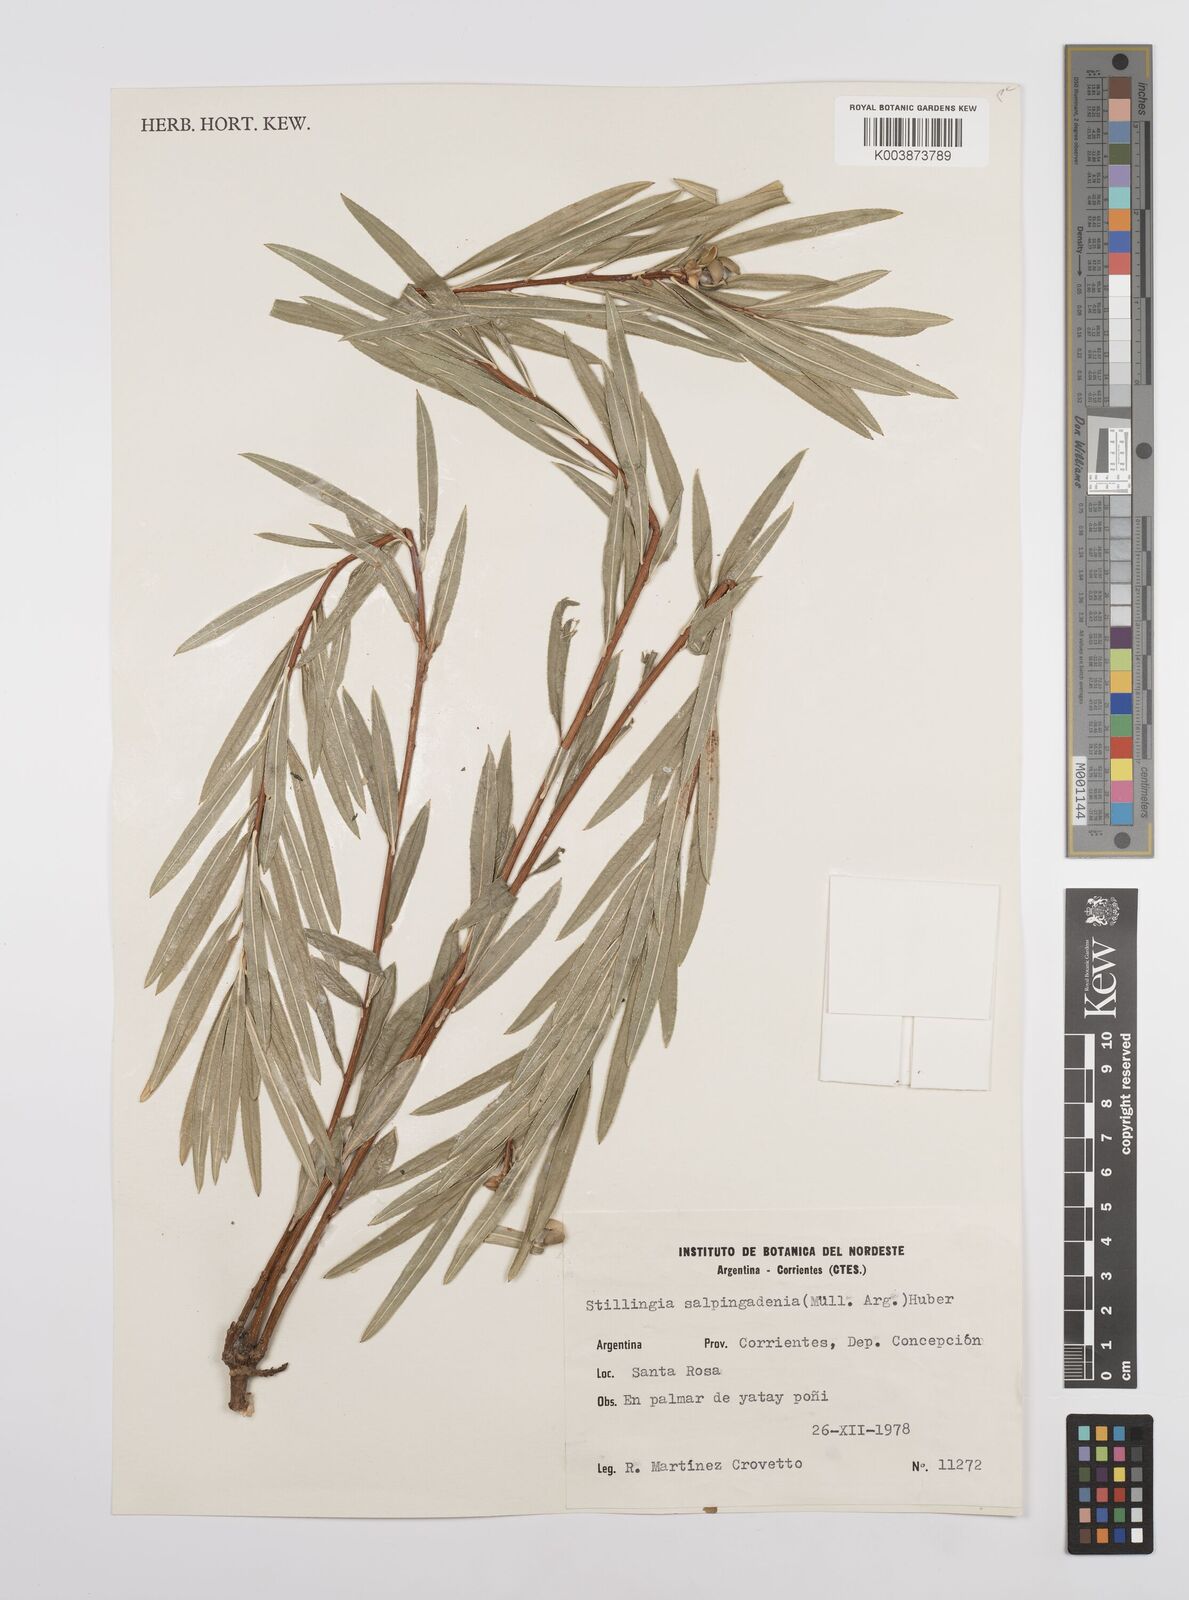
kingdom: Plantae
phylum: Tracheophyta
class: Magnoliopsida
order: Malpighiales
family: Euphorbiaceae
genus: Stillingia
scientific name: Stillingia salpingadenia
